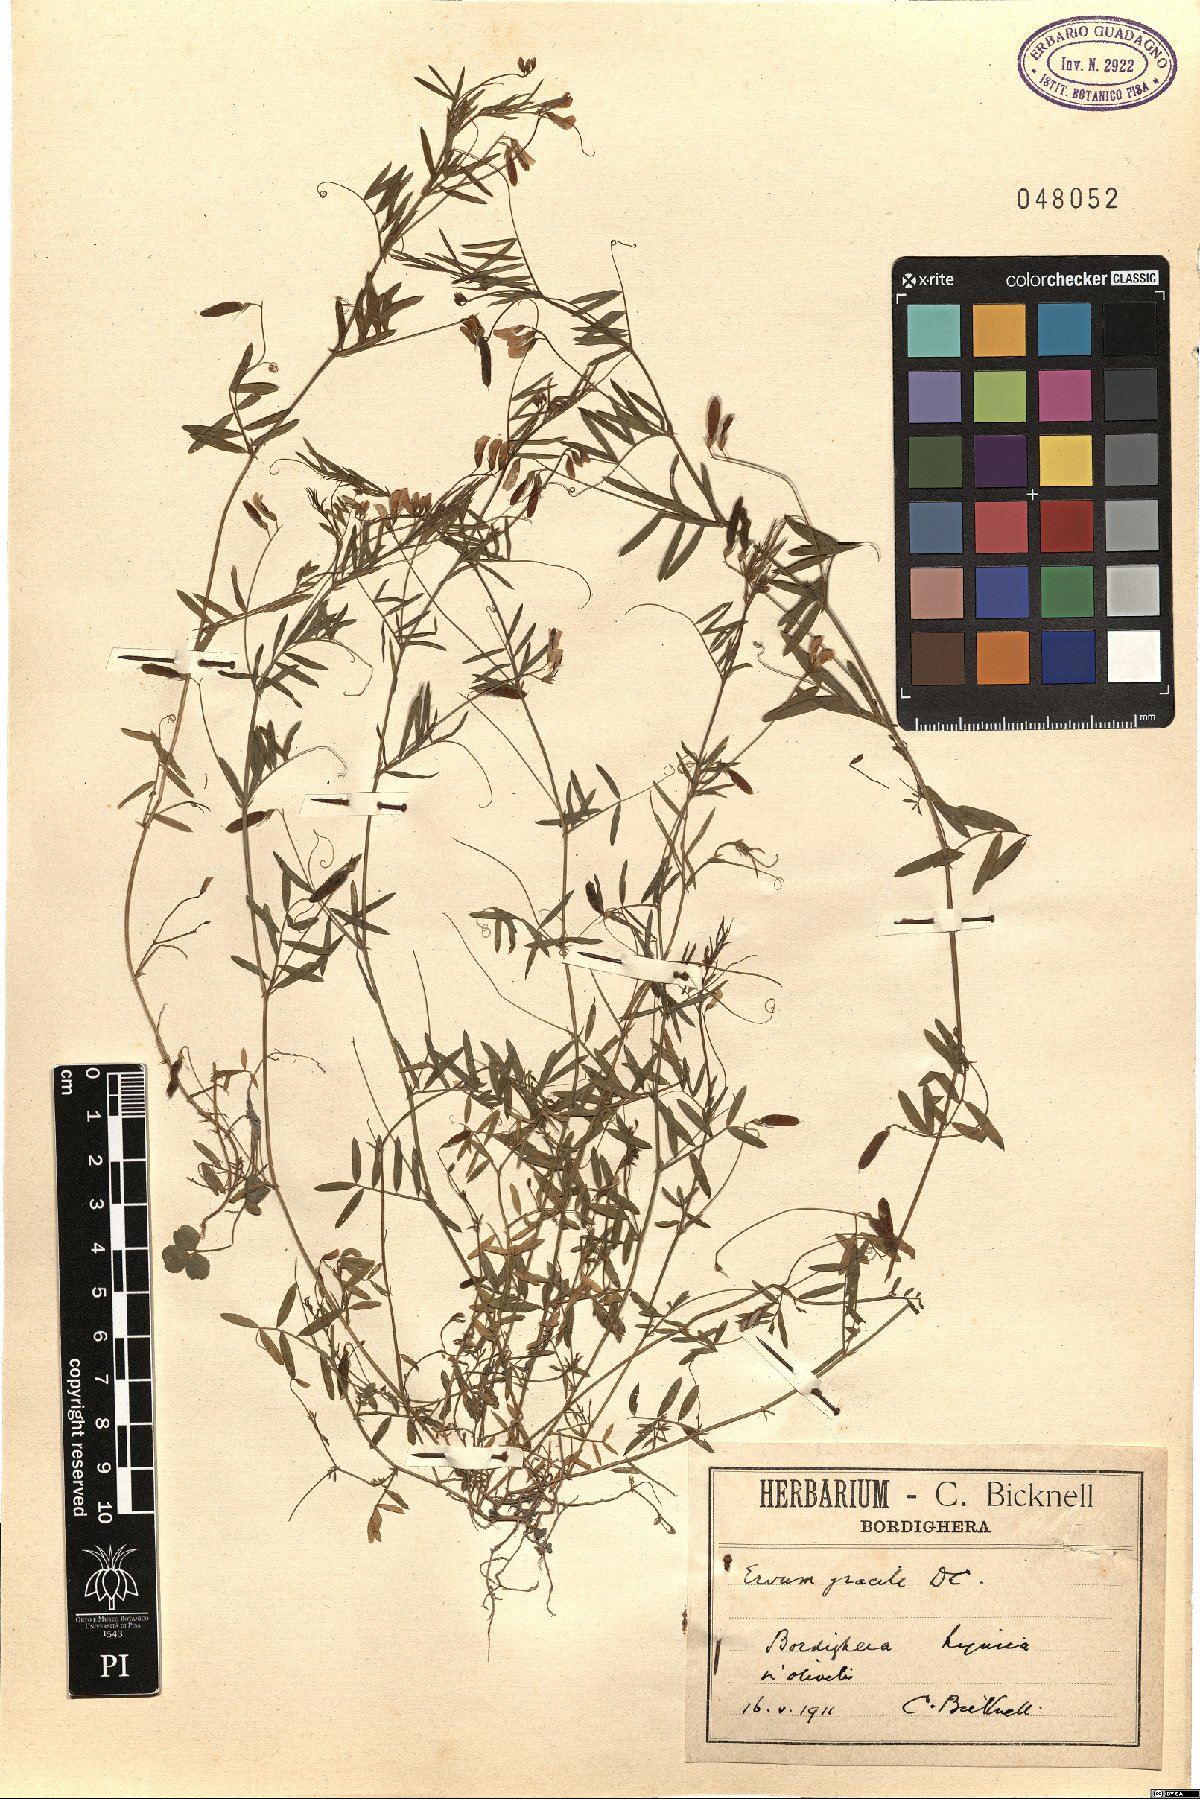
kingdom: Plantae
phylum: Tracheophyta
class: Magnoliopsida
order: Fabales
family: Fabaceae
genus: Vicia
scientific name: Vicia parviflora
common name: Slender tare
